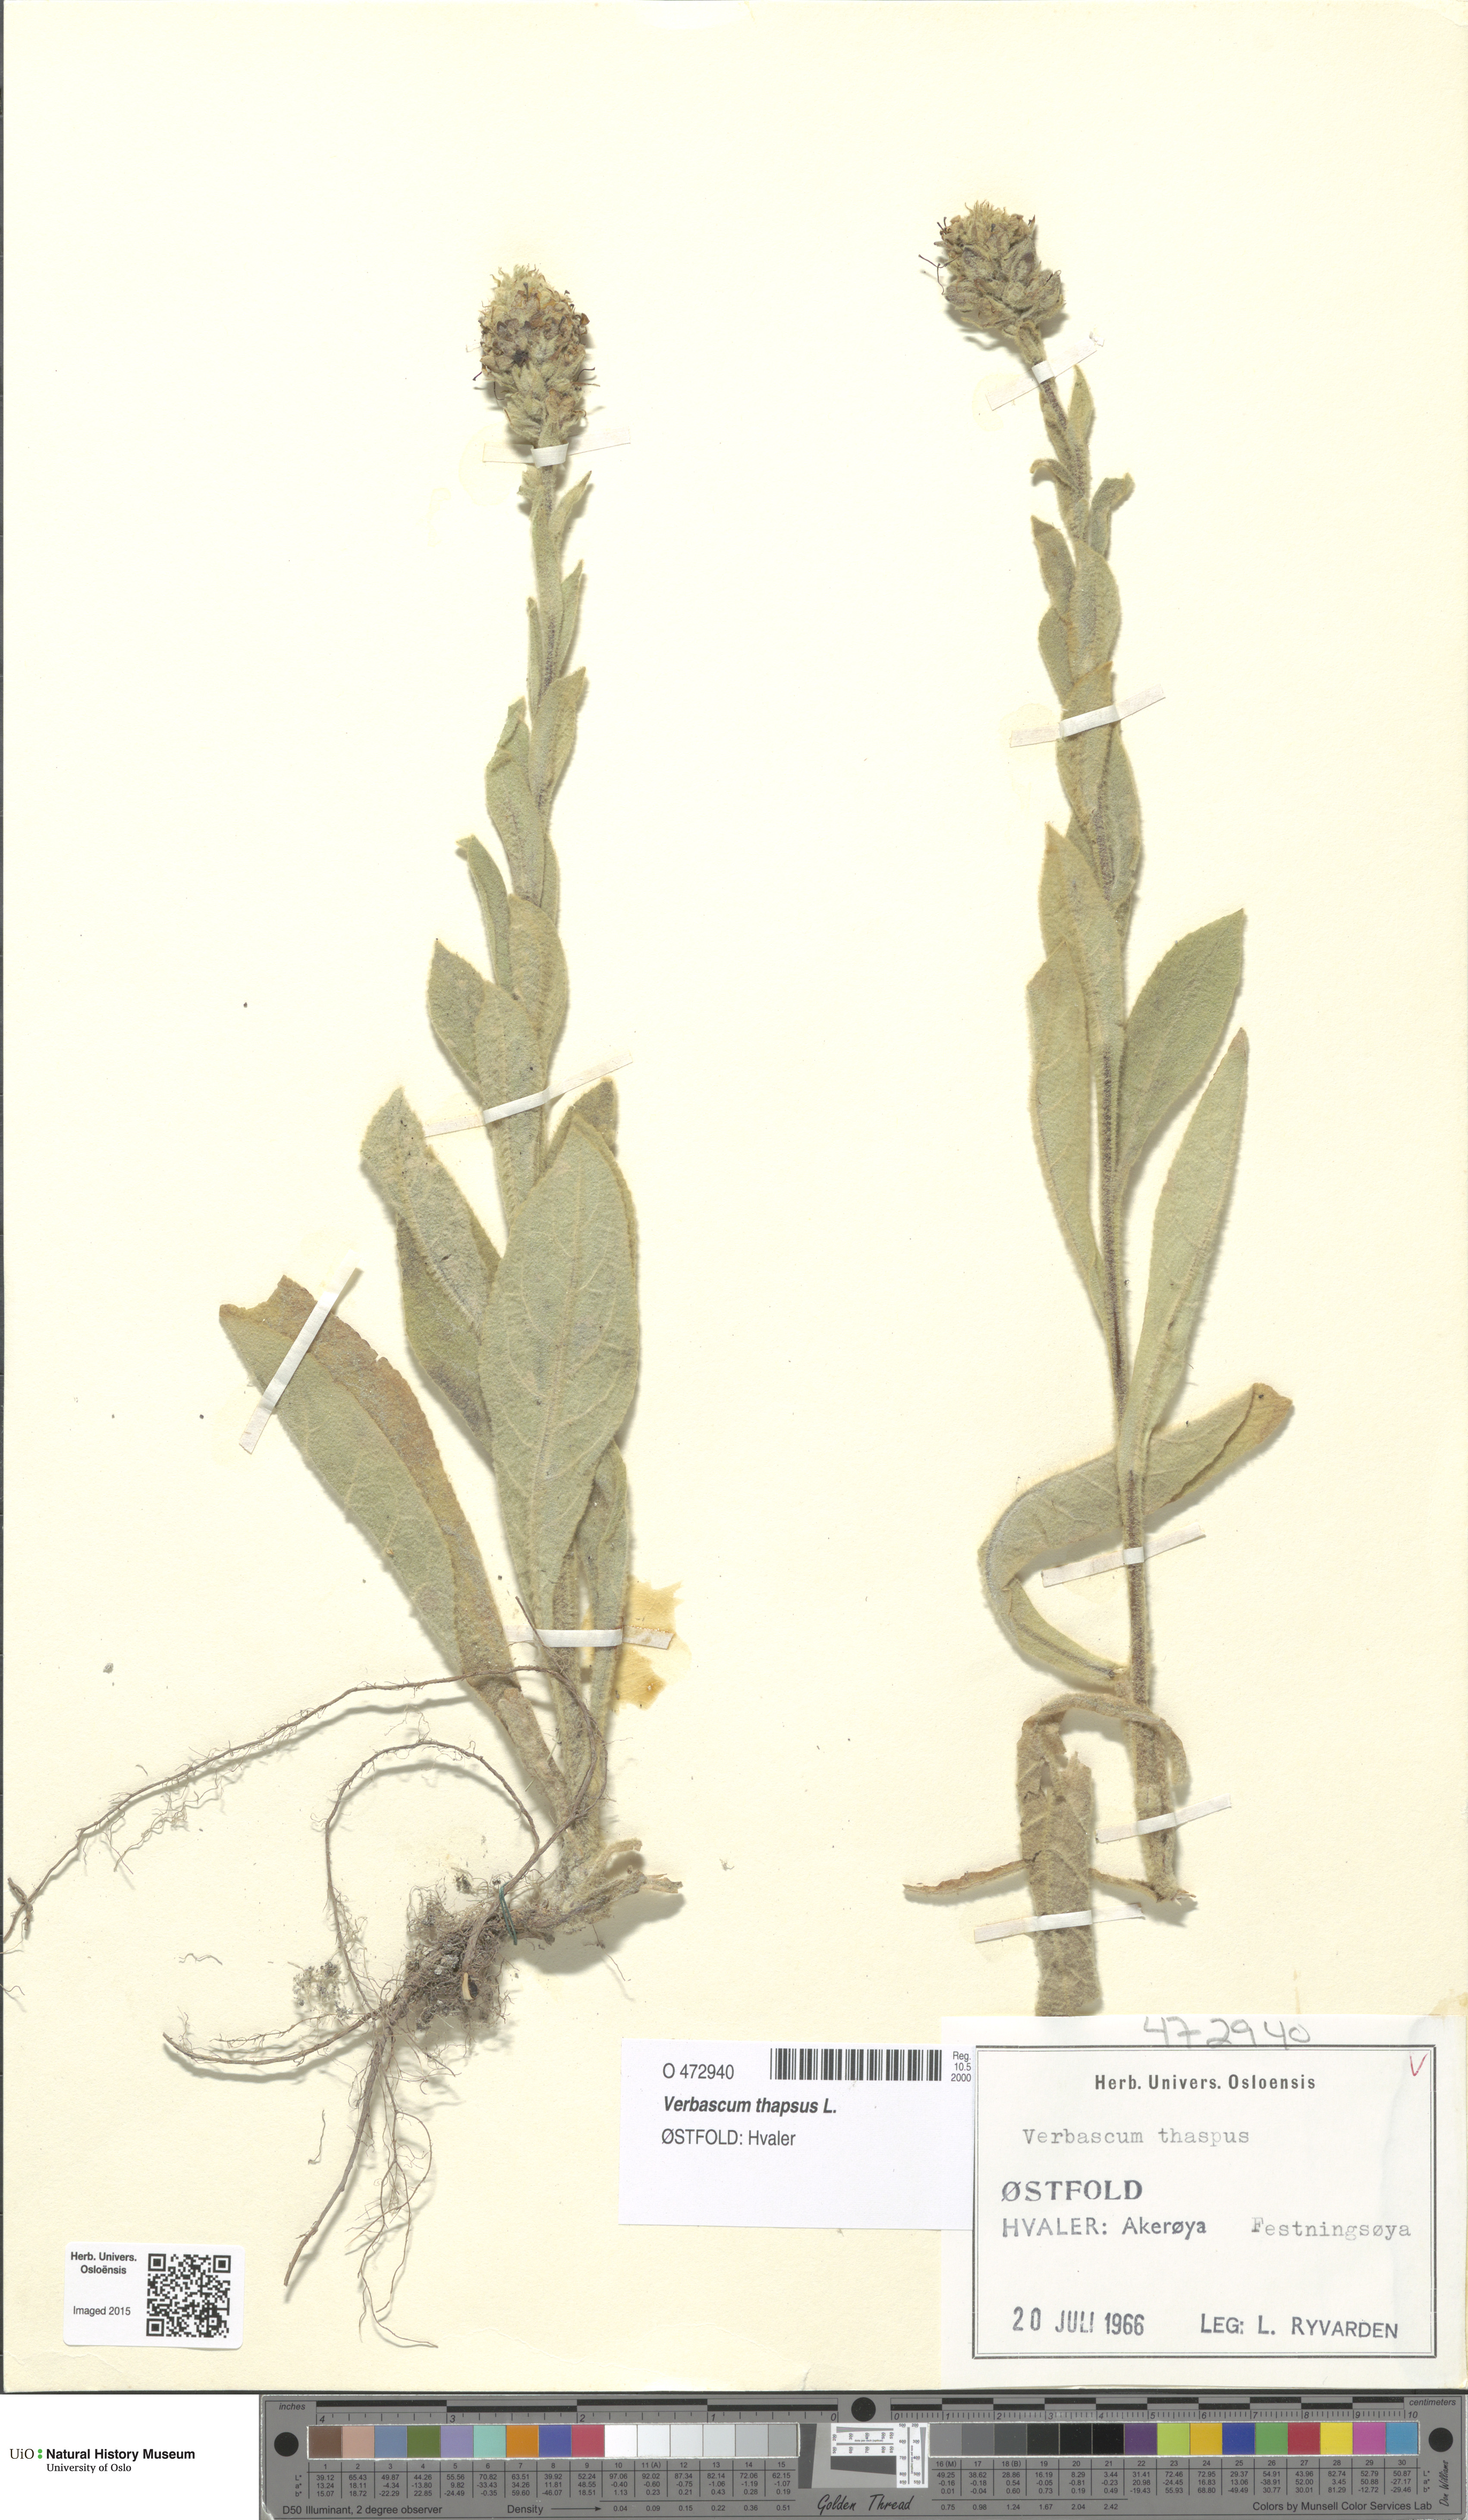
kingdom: Plantae
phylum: Tracheophyta
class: Magnoliopsida
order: Lamiales
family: Scrophulariaceae
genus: Verbascum
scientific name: Verbascum thapsus
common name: Common mullein
